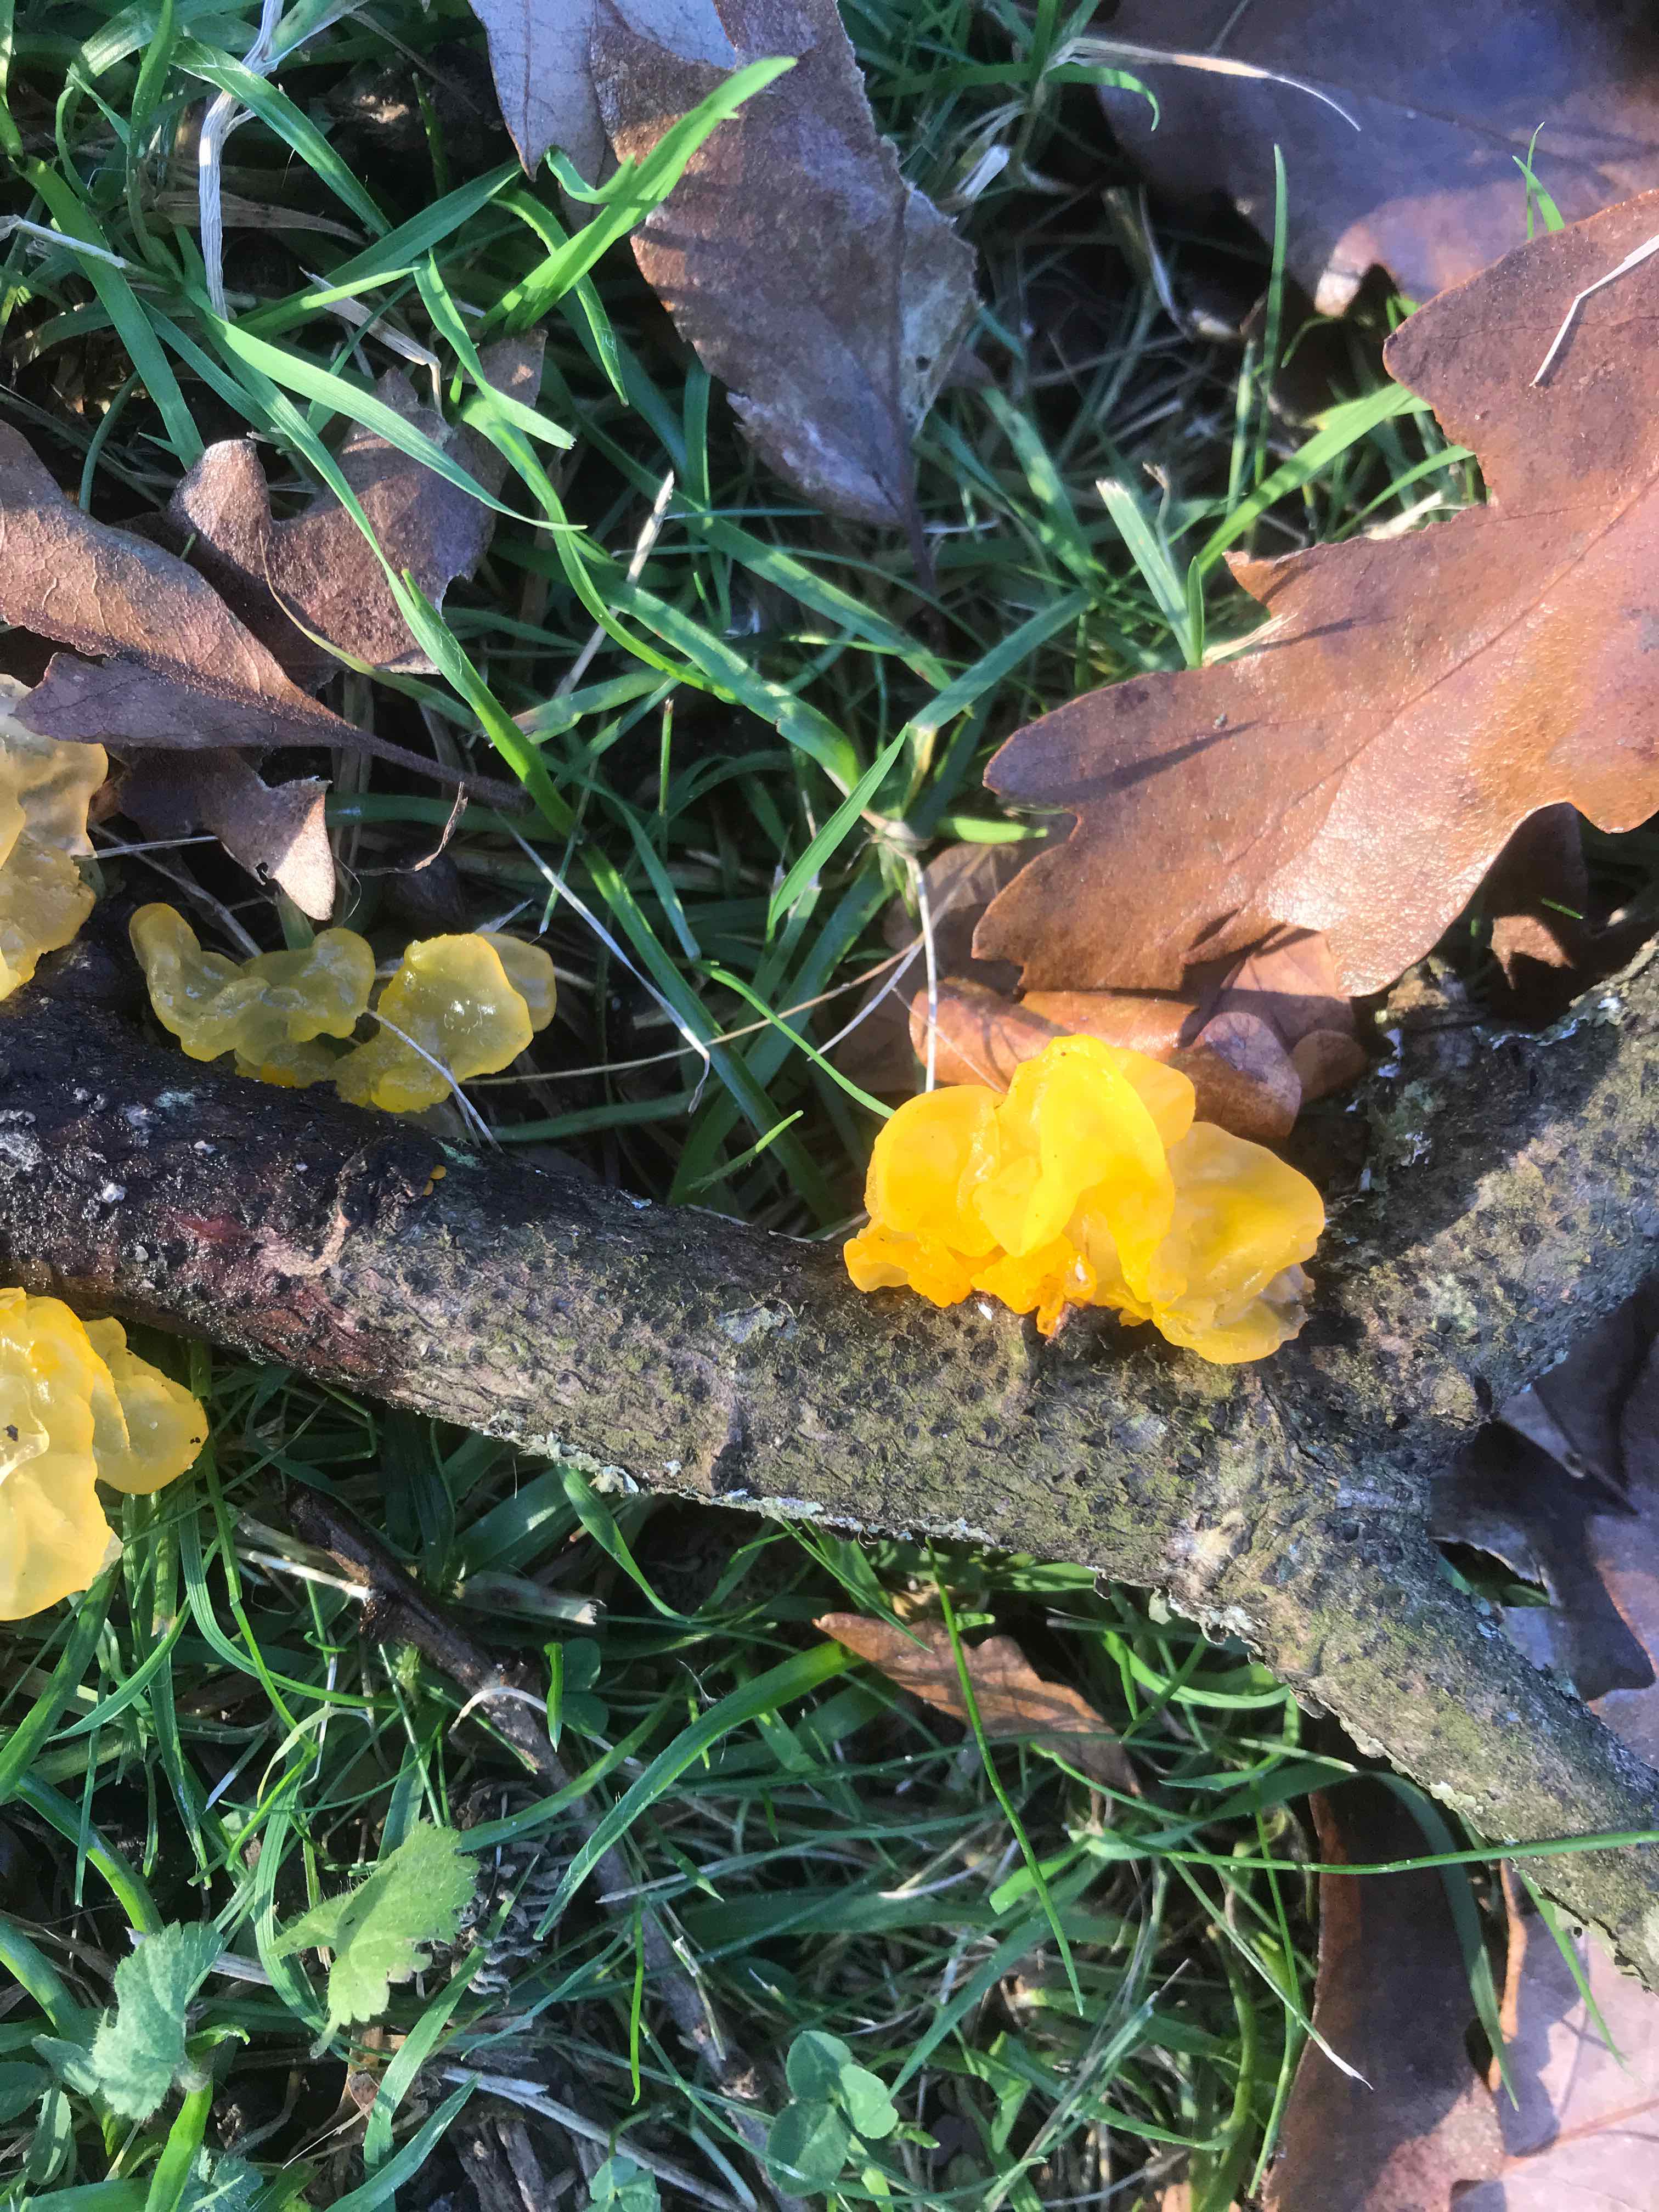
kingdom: Fungi
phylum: Basidiomycota
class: Tremellomycetes
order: Tremellales
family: Tremellaceae
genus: Tremella
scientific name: Tremella mesenterica
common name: gul bævresvamp
